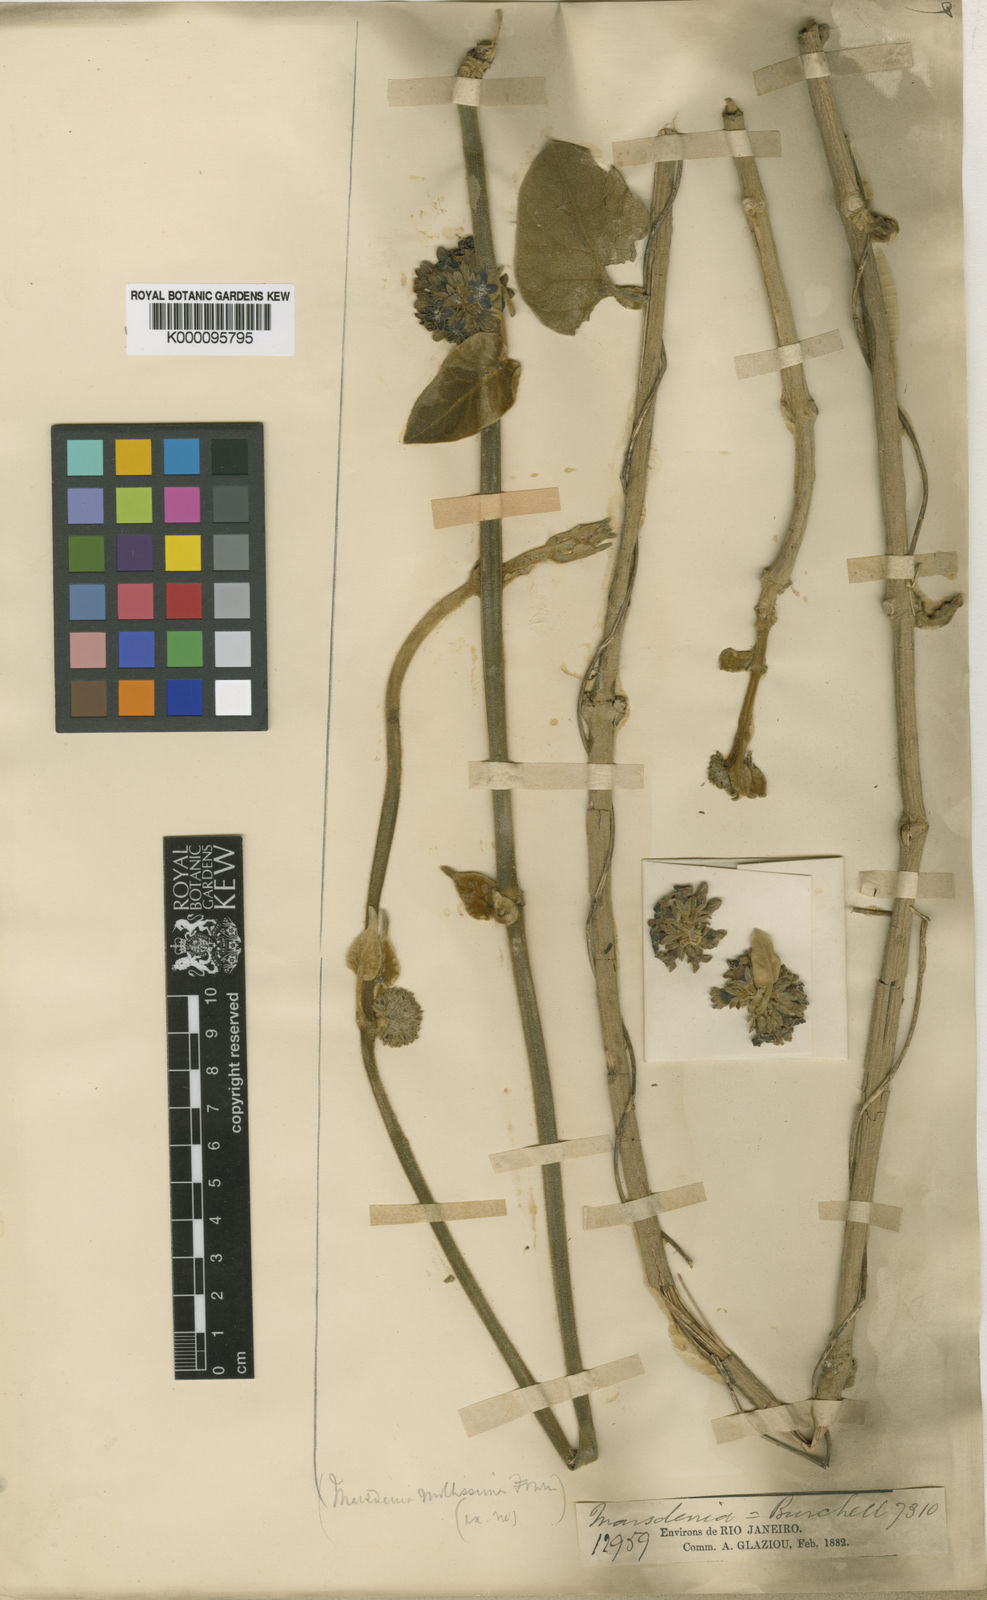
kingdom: Plantae
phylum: Tracheophyta
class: Magnoliopsida
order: Gentianales
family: Apocynaceae
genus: Ruehssia
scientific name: Ruehssia altissima
